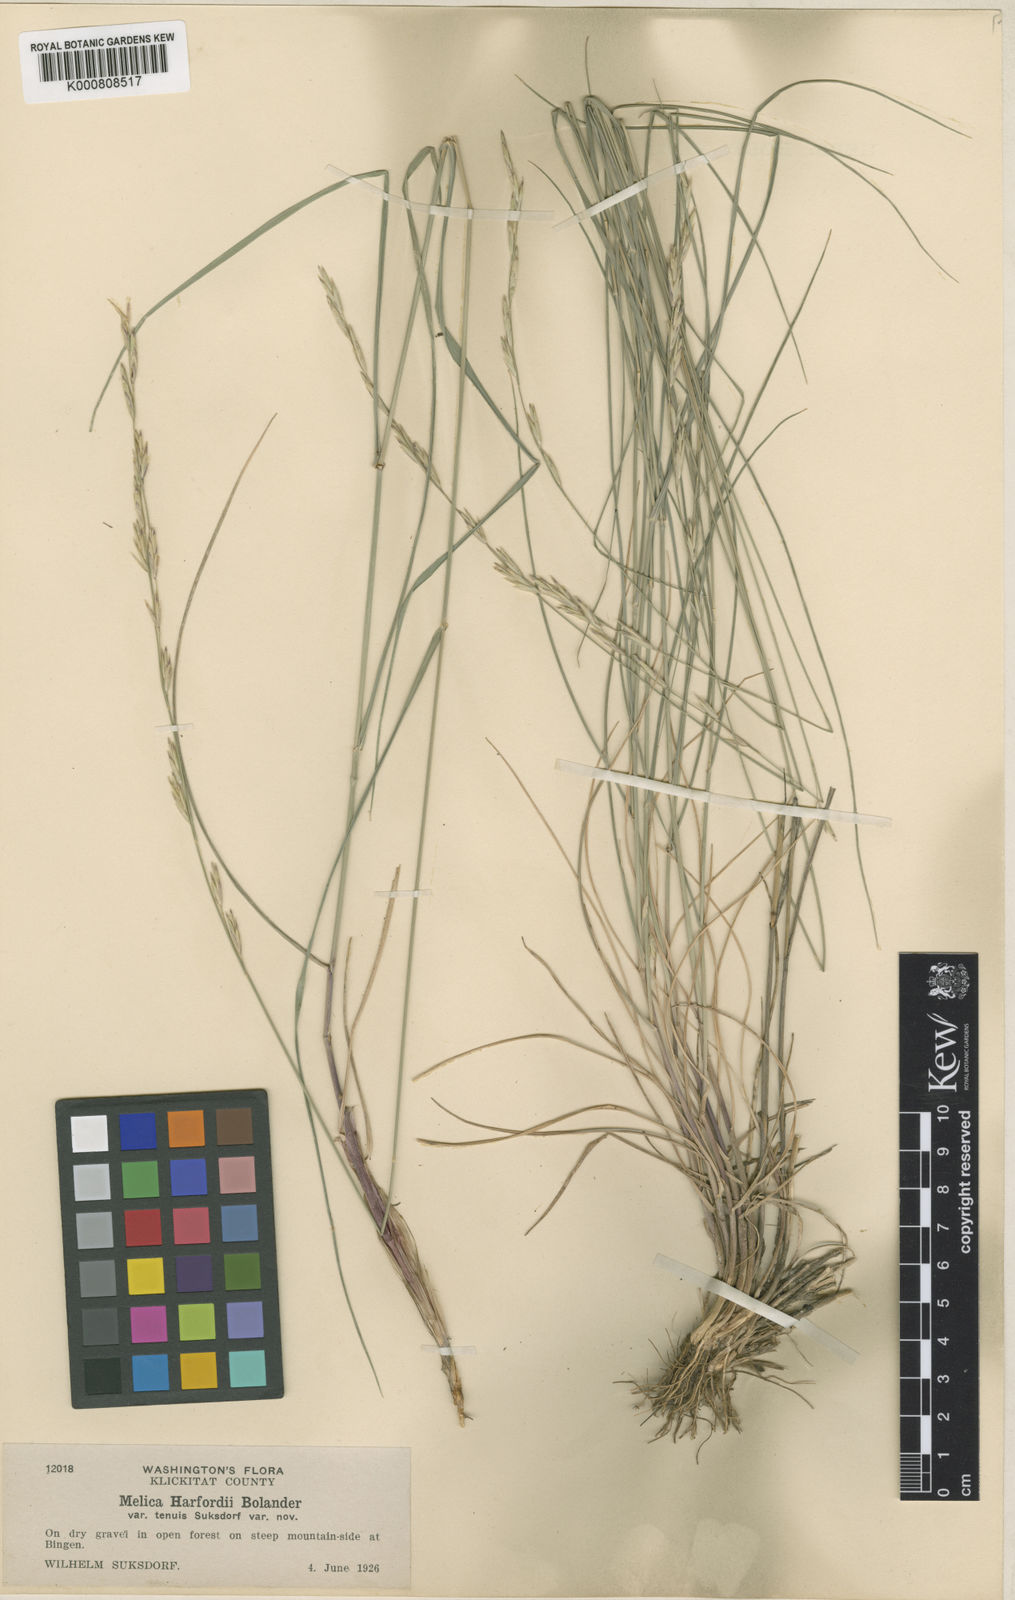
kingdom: Plantae
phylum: Tracheophyta
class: Liliopsida
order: Poales
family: Poaceae
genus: Melica
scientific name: Melica harfordii
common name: Harford's melic
